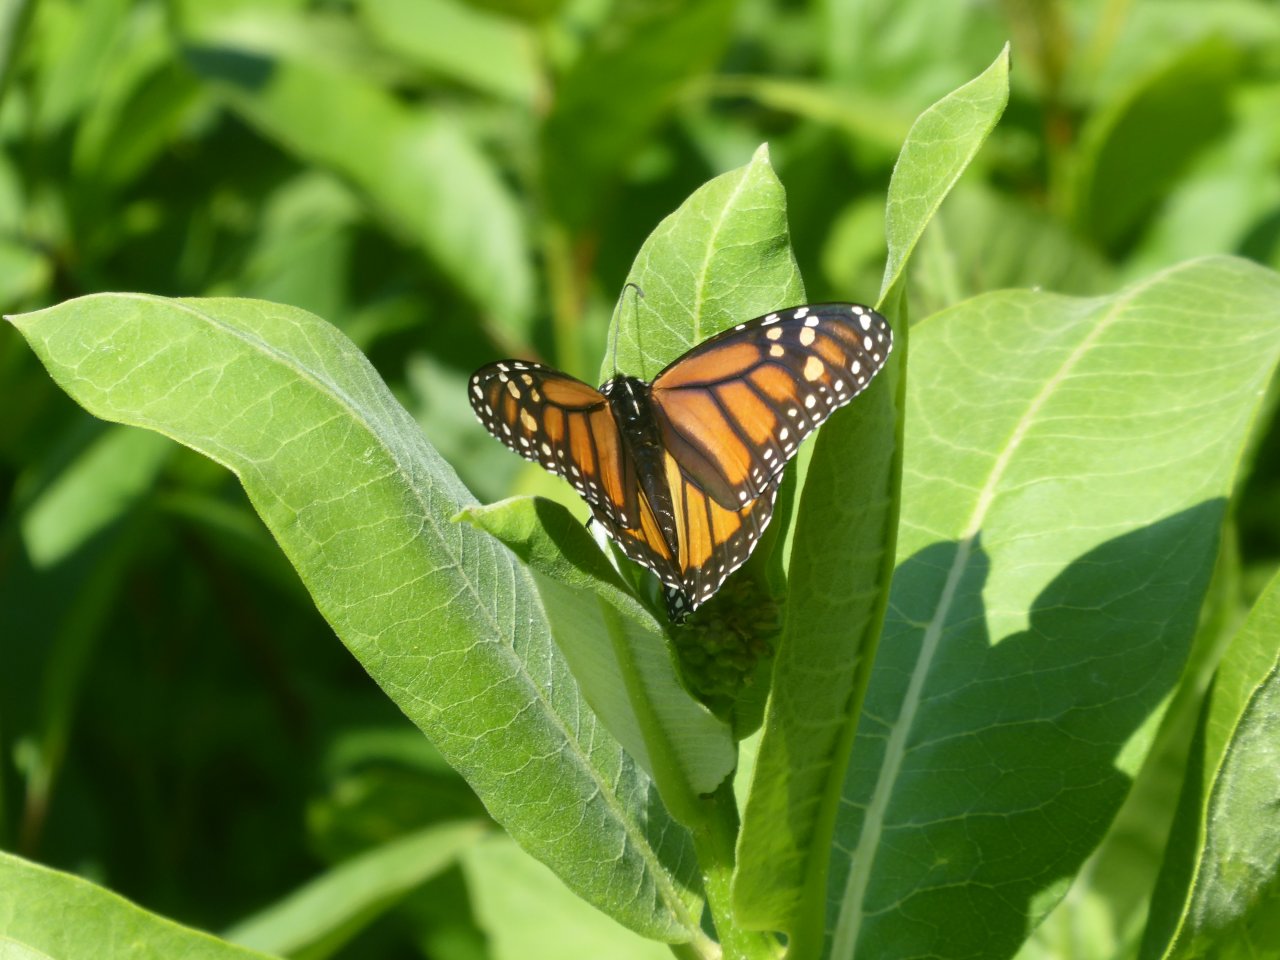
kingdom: Animalia
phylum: Arthropoda
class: Insecta
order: Lepidoptera
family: Nymphalidae
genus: Danaus
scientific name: Danaus plexippus
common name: Monarch
